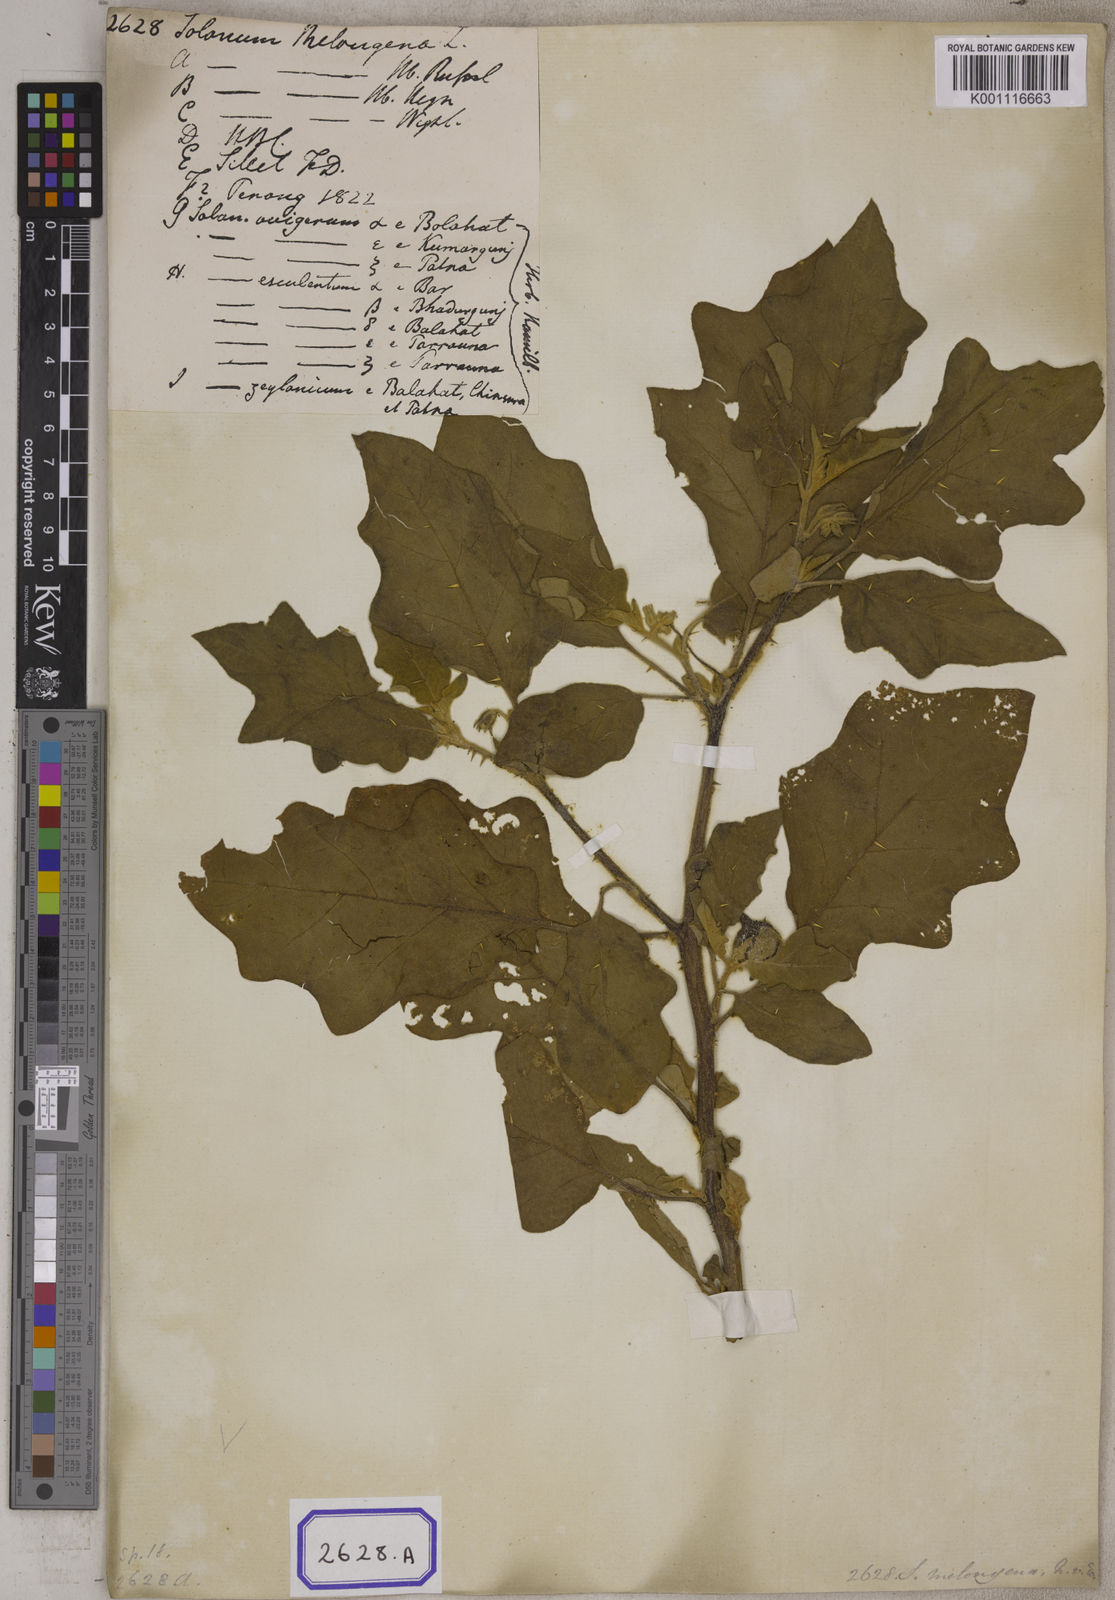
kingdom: Plantae
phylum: Tracheophyta
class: Magnoliopsida
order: Solanales
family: Solanaceae
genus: Solanum
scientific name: Solanum melongena
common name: Eggplant
